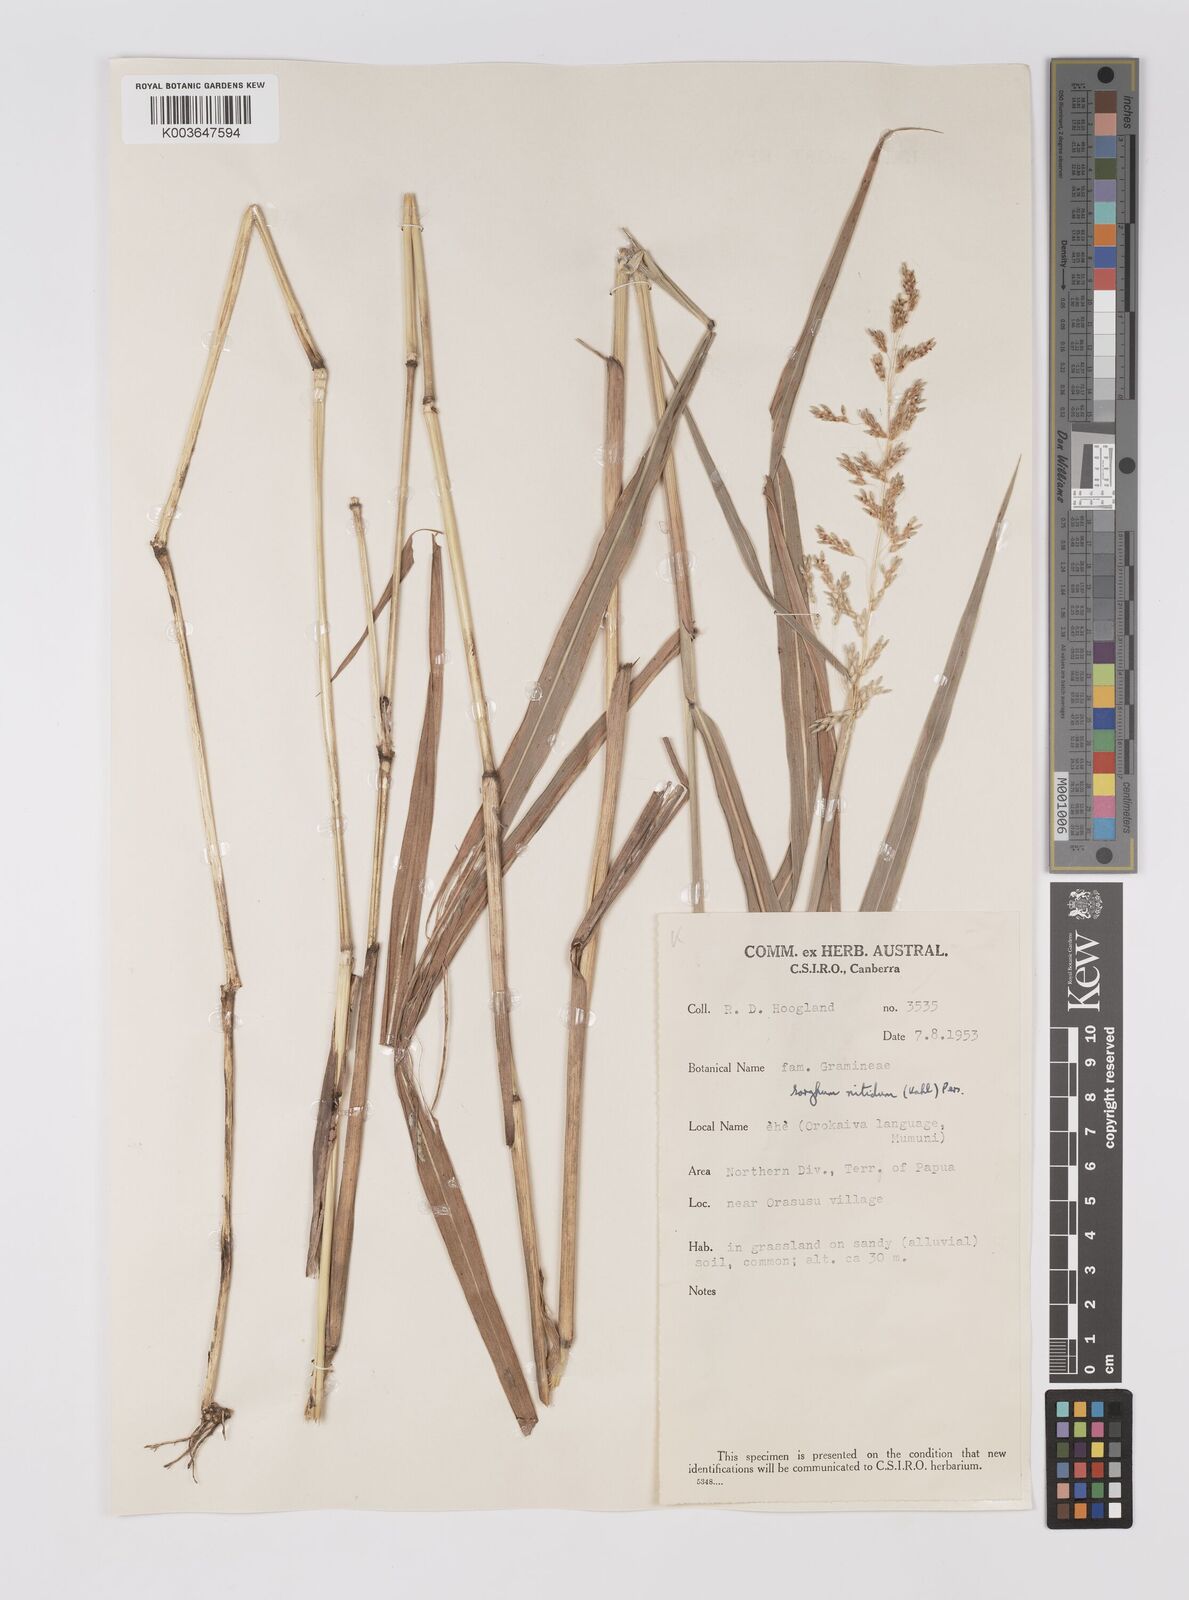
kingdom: Plantae
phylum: Tracheophyta
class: Liliopsida
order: Poales
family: Poaceae
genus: Sorghum
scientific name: Sorghum nitidum
